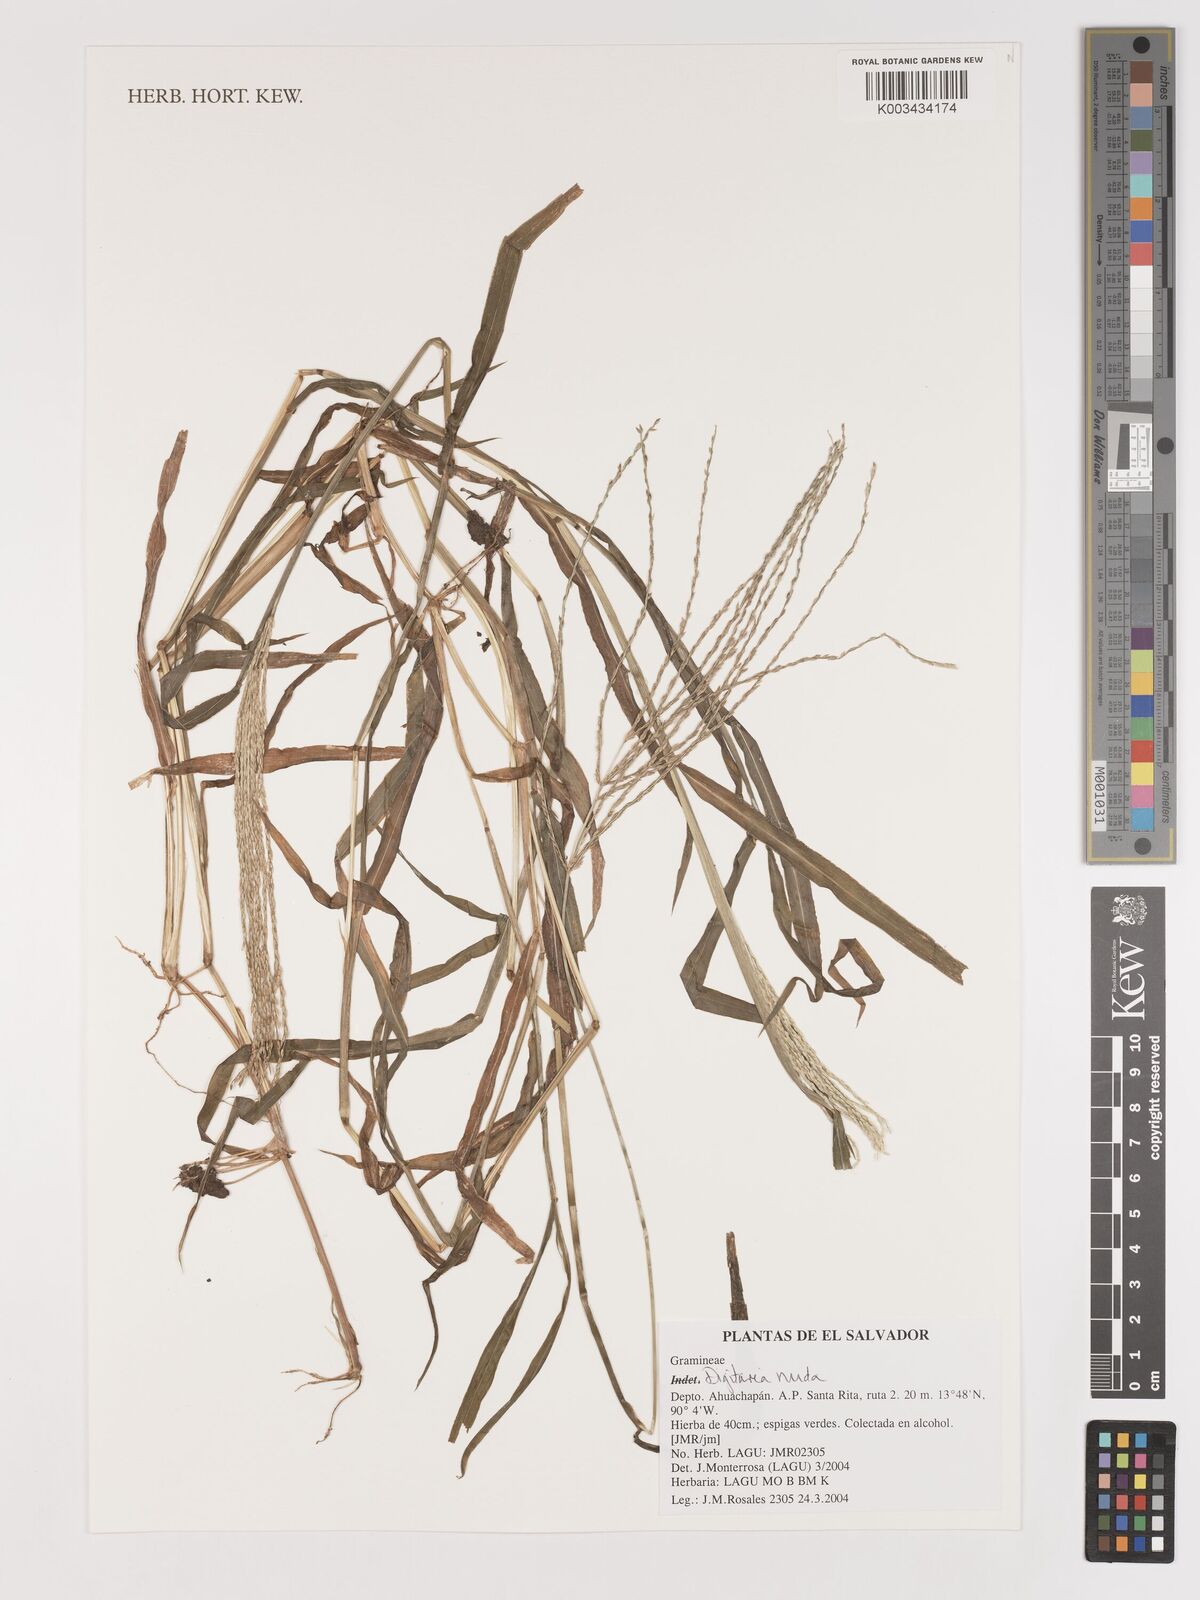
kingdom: Plantae
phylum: Tracheophyta
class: Liliopsida
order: Poales
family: Poaceae
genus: Digitaria
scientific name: Digitaria nuda
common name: Naked crabgrass
